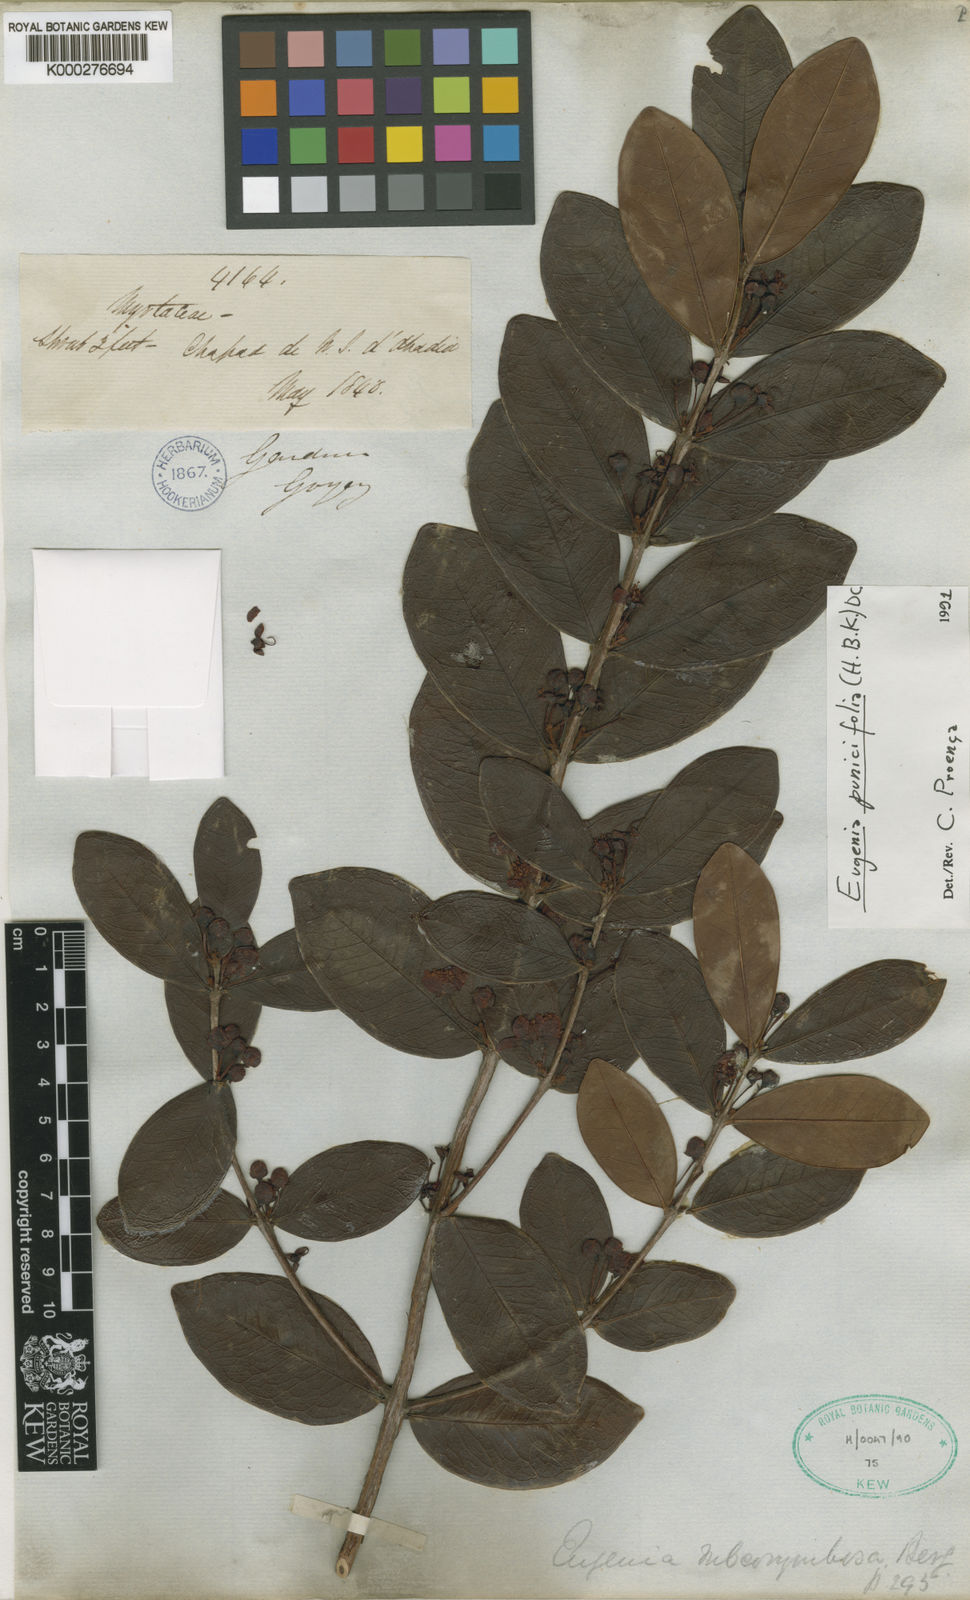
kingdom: Plantae
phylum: Tracheophyta
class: Magnoliopsida
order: Myrtales
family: Myrtaceae
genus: Eugenia
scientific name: Eugenia punicifolia
